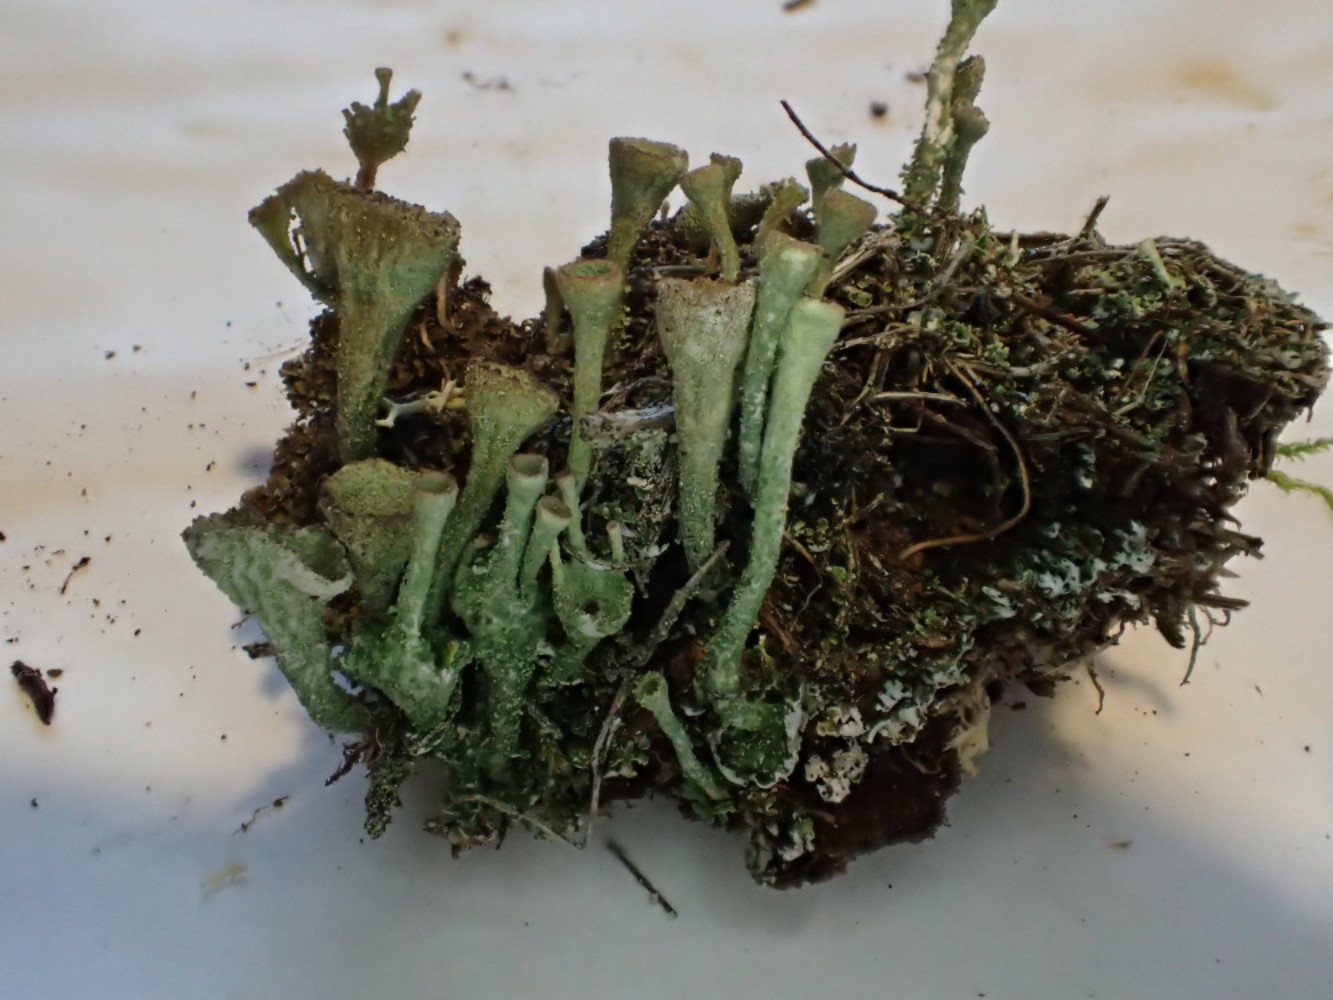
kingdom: Fungi
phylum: Ascomycota
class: Lecanoromycetes
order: Lecanorales
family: Cladoniaceae
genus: Cladonia
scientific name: Cladonia
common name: brungrøn bægerlav
